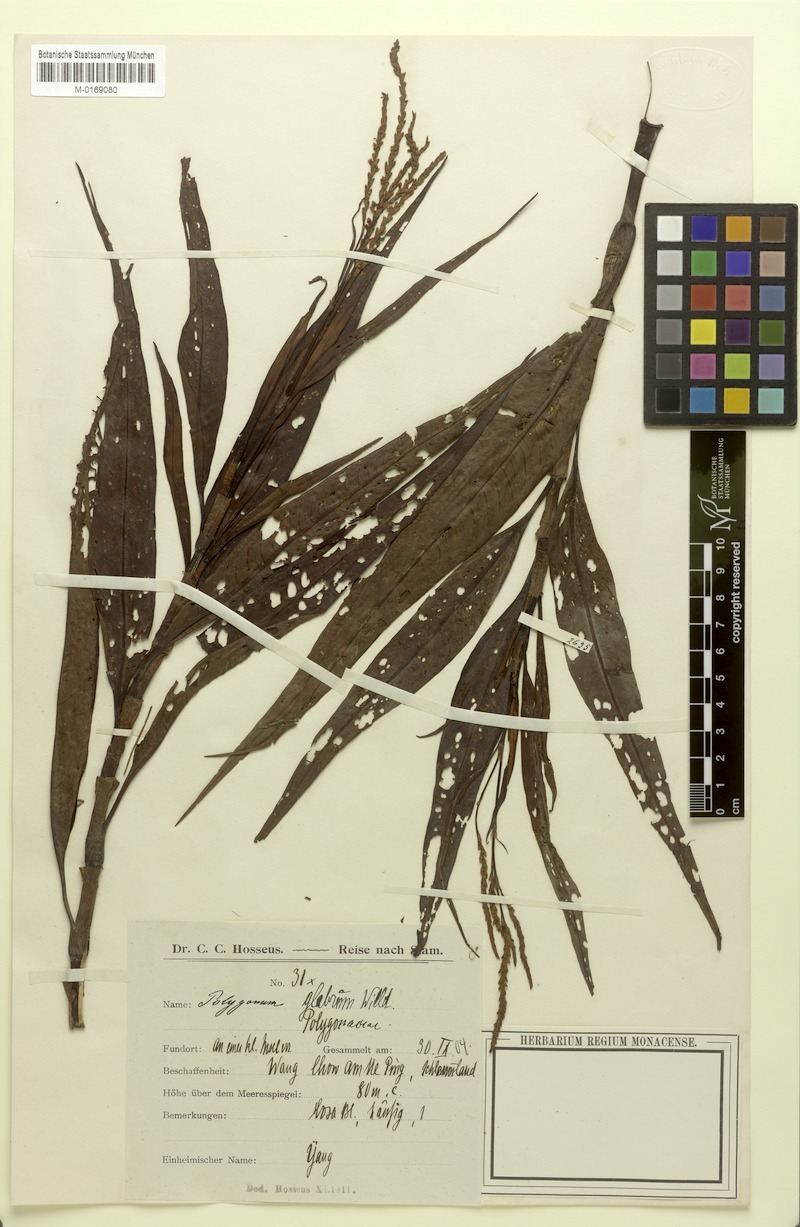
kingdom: Plantae
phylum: Tracheophyta
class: Magnoliopsida
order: Caryophyllales
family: Polygonaceae
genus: Persicaria
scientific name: Persicaria glabra
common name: Denseflower knotweed
